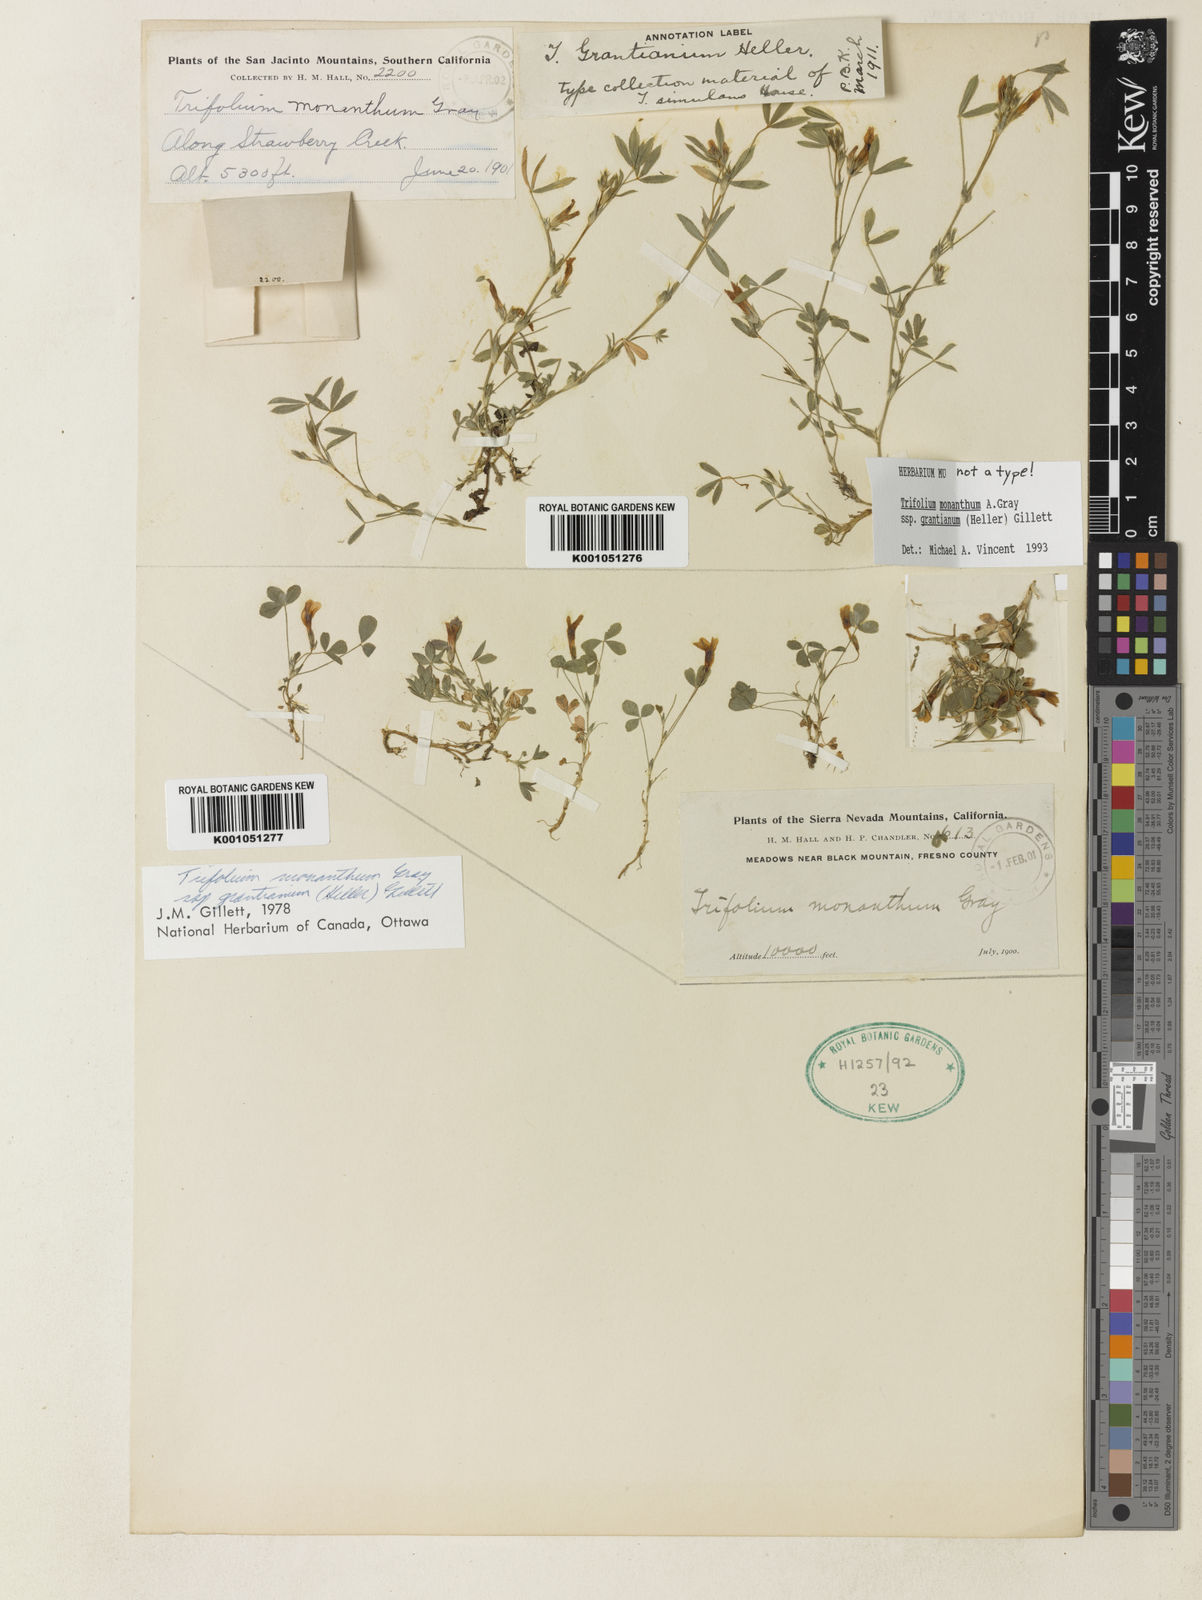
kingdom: Plantae
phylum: Tracheophyta
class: Magnoliopsida
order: Fabales
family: Fabaceae
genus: Trifolium
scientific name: Trifolium monanthum
